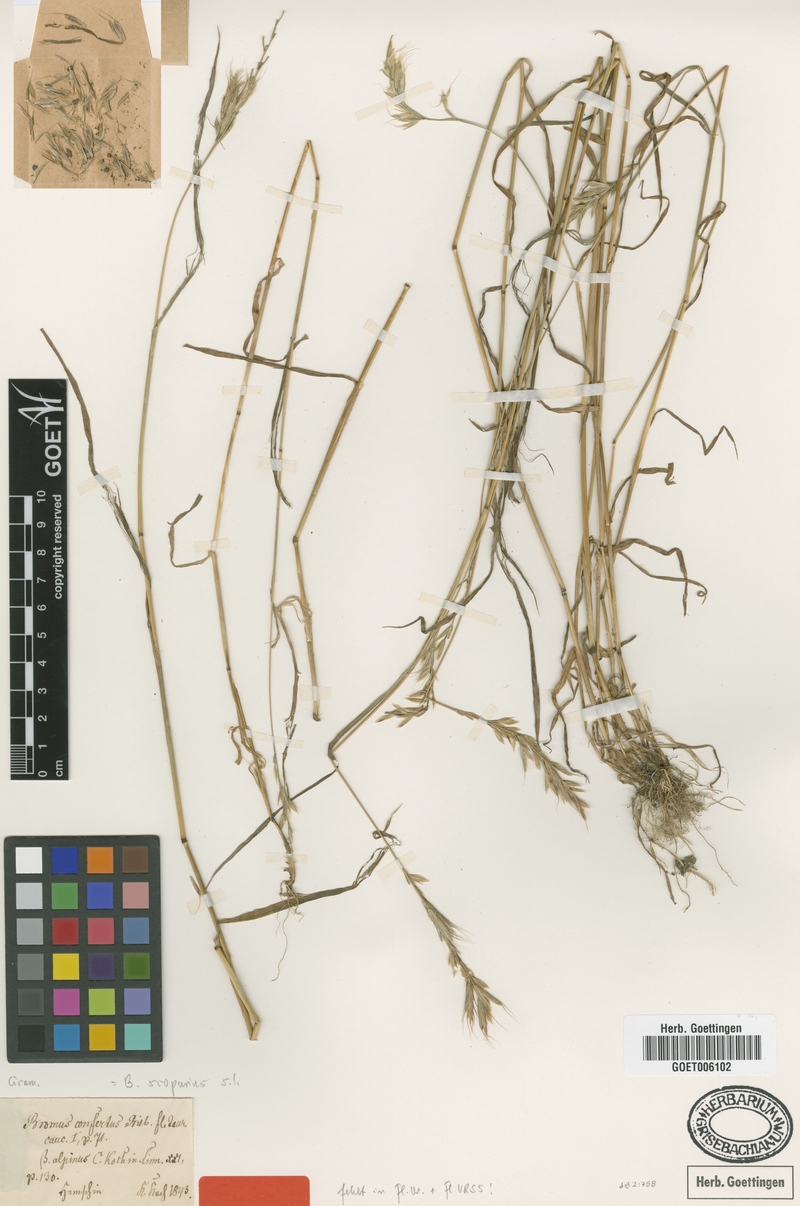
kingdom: Plantae
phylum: Tracheophyta
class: Liliopsida
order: Poales
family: Poaceae
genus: Bromus
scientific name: Bromus scoparius
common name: Broom brome
